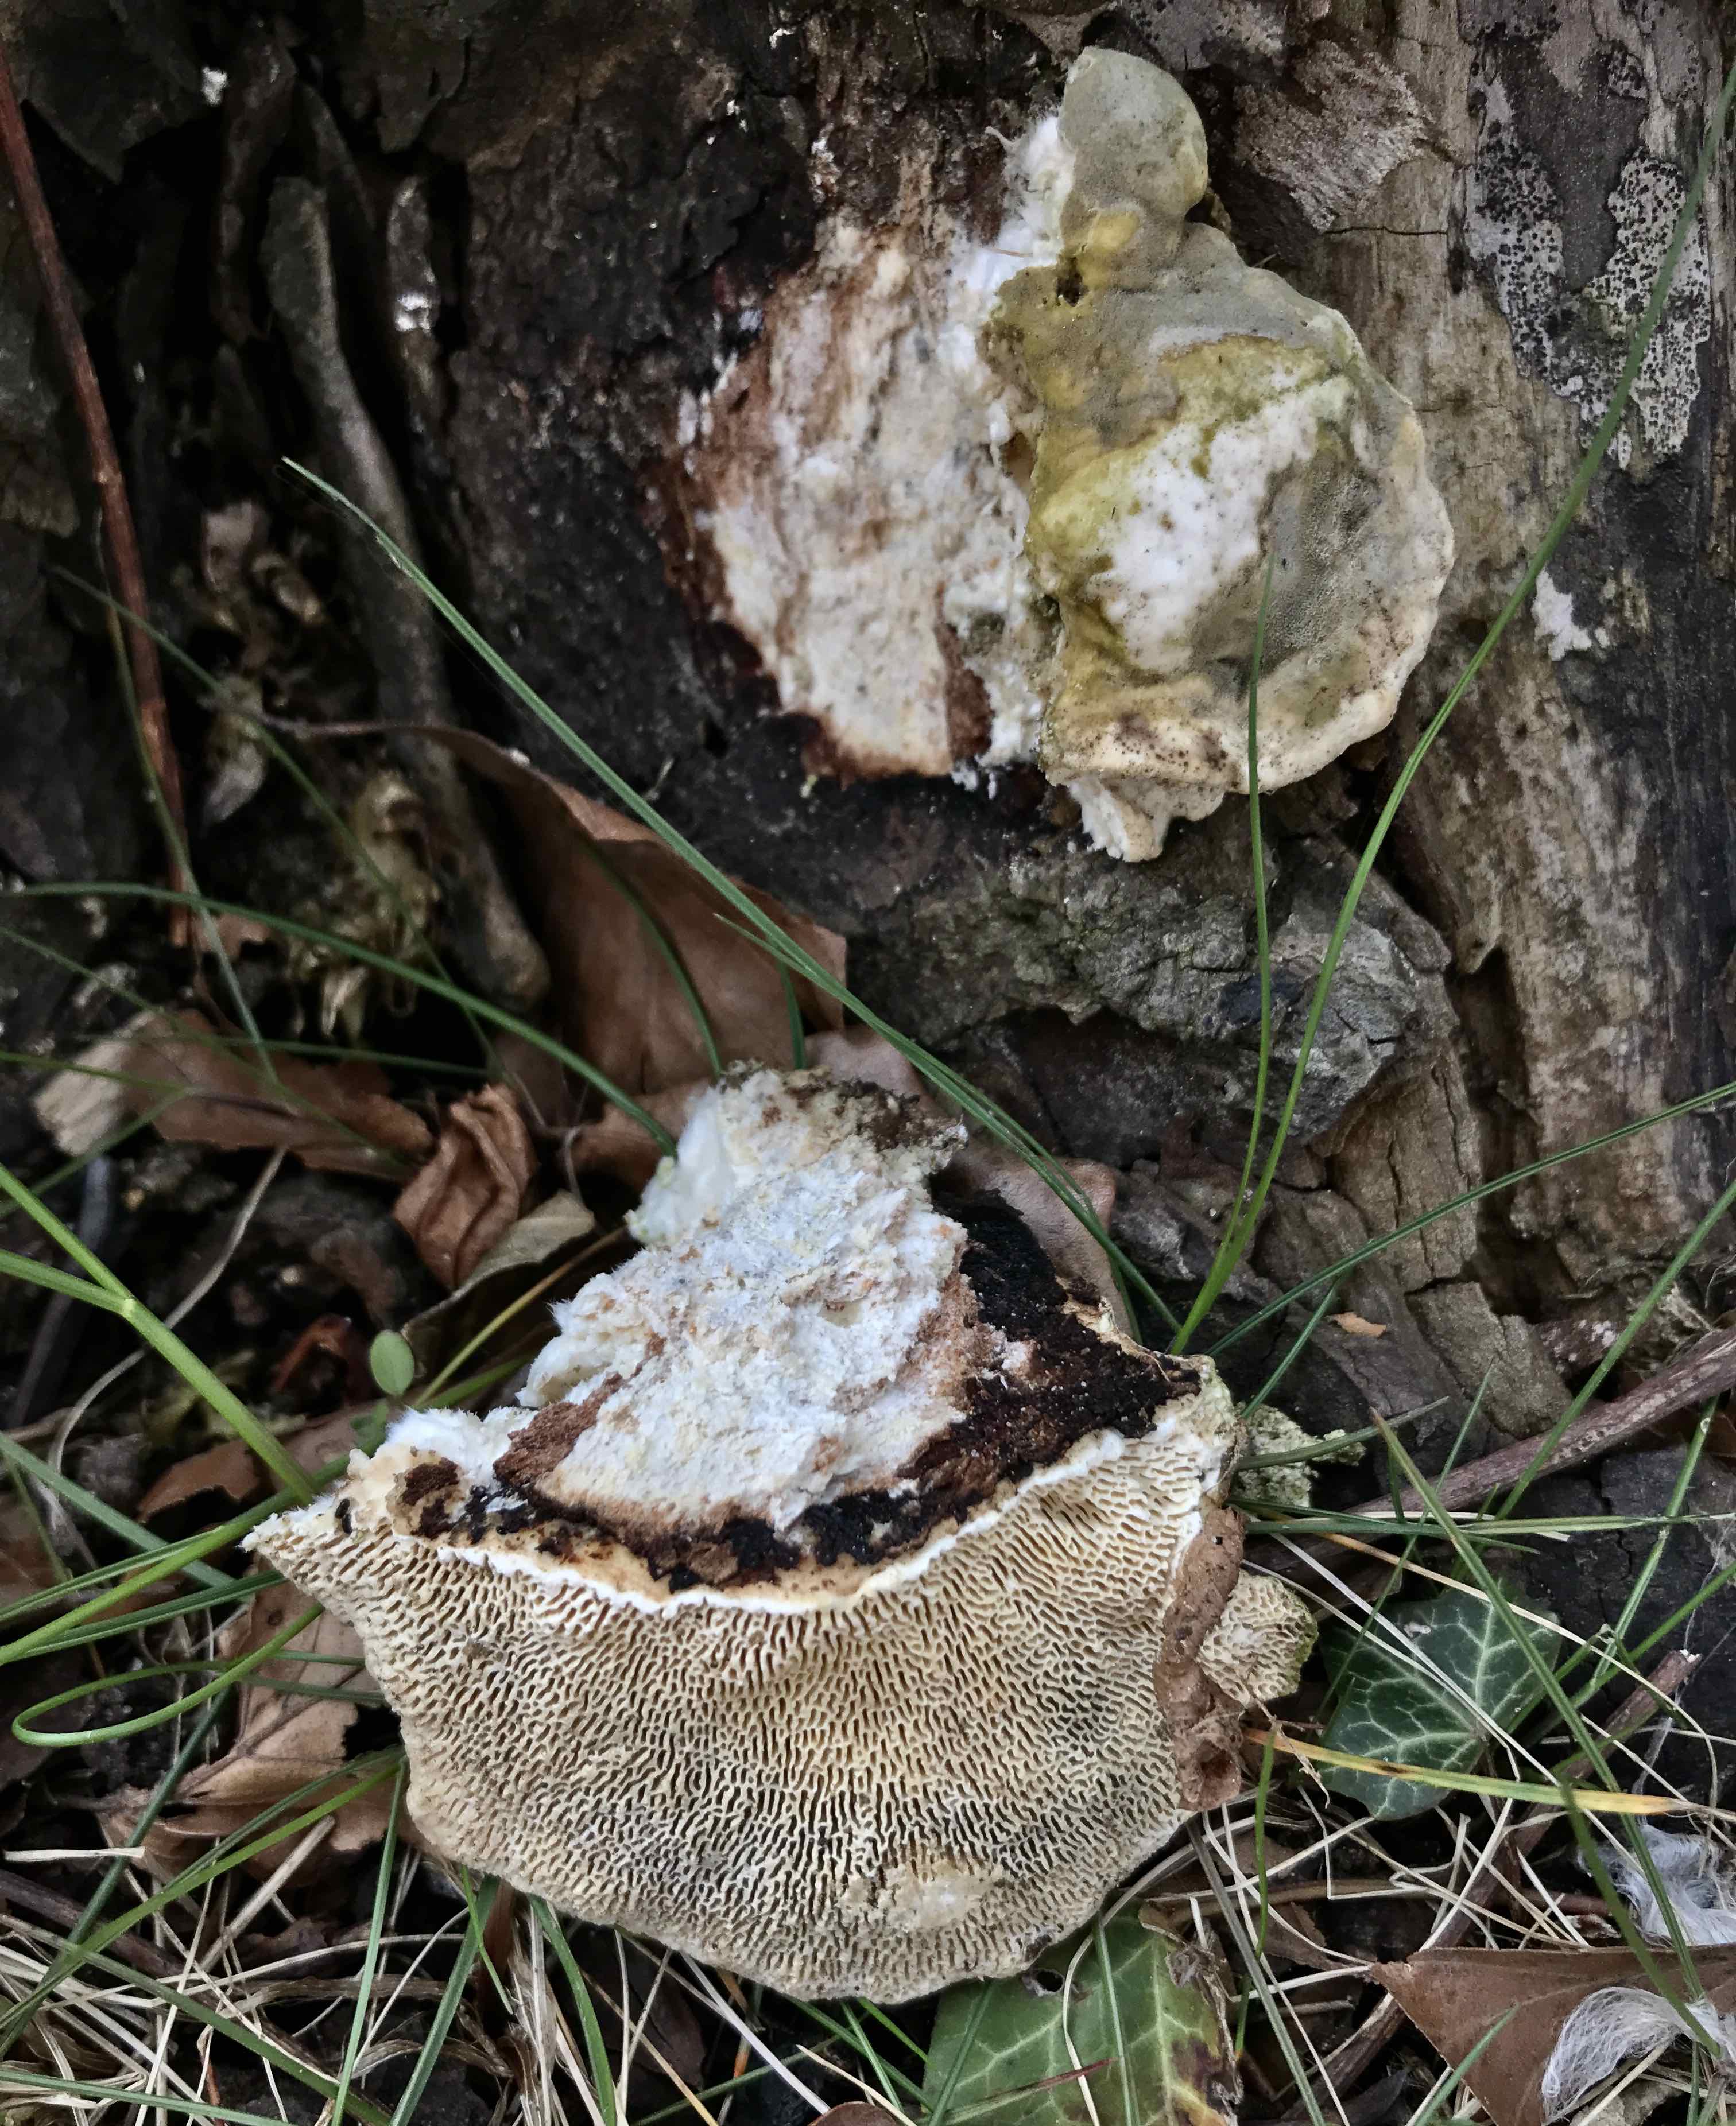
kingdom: Fungi
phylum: Basidiomycota
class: Agaricomycetes
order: Polyporales
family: Polyporaceae
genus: Trametes
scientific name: Trametes gibbosa
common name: puklet læderporesvamp
